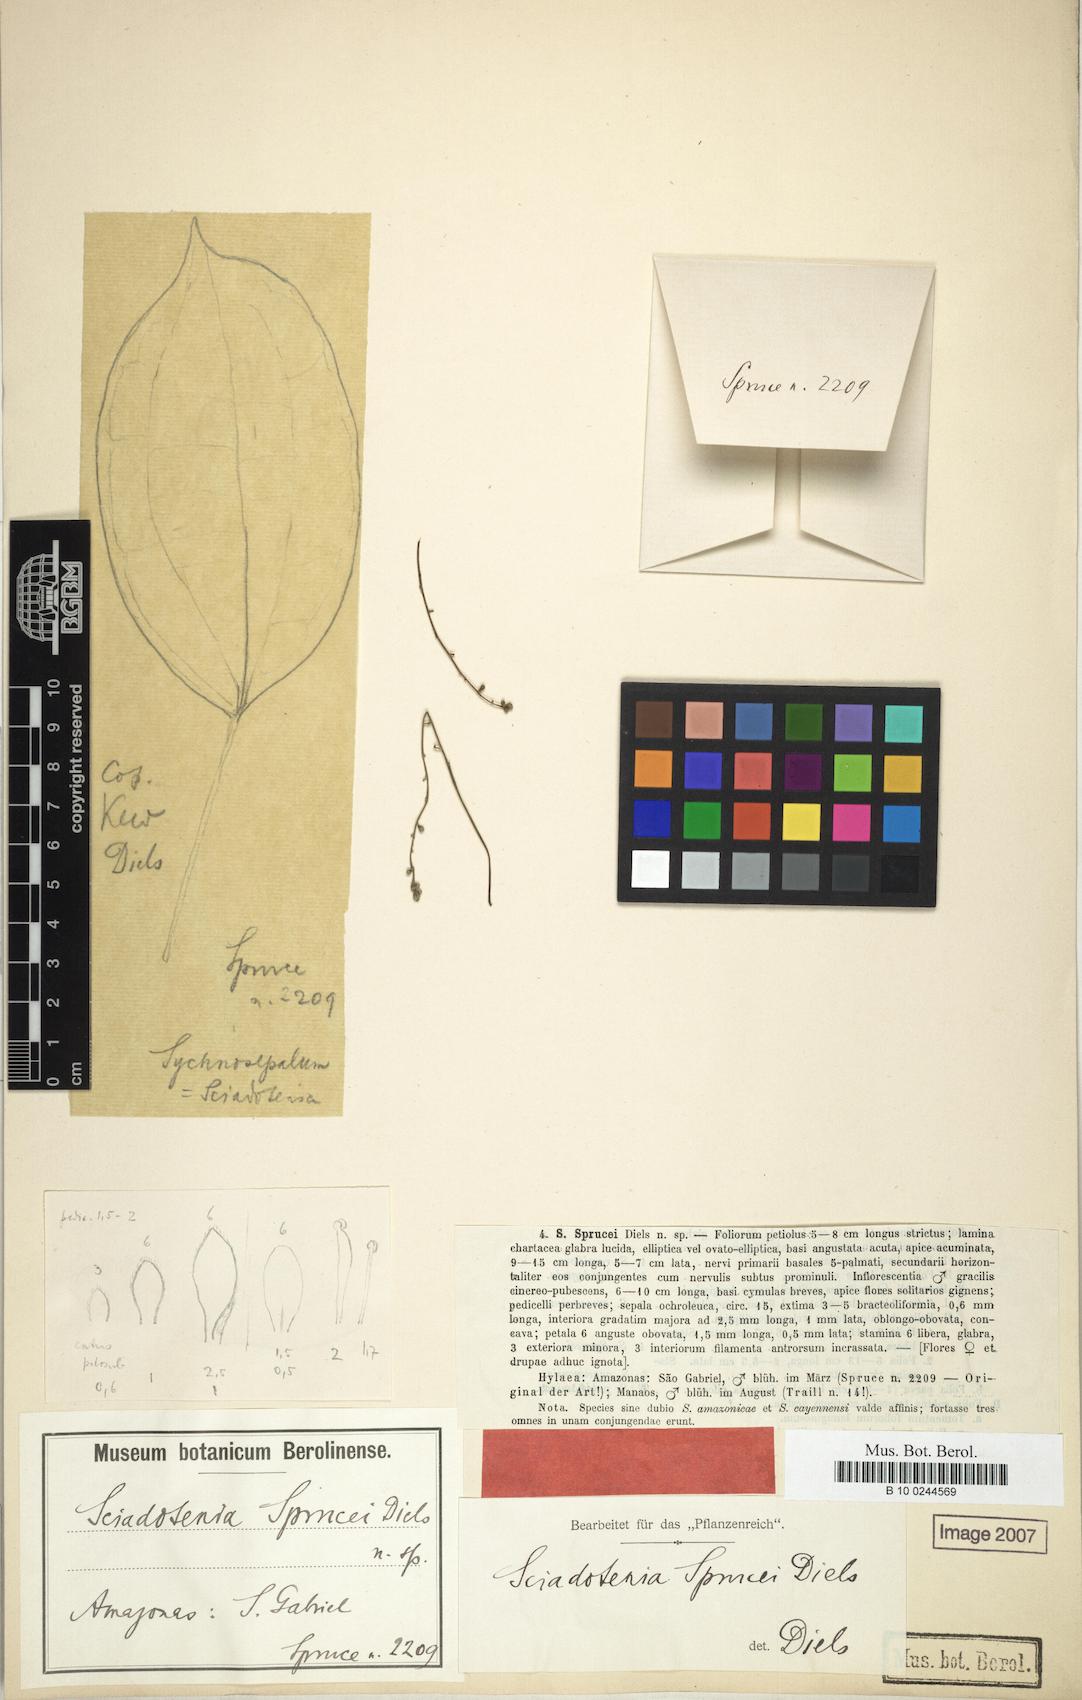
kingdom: Plantae
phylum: Tracheophyta
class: Magnoliopsida
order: Ranunculales
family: Menispermaceae
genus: Sciadotenia
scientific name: Sciadotenia sprucei
